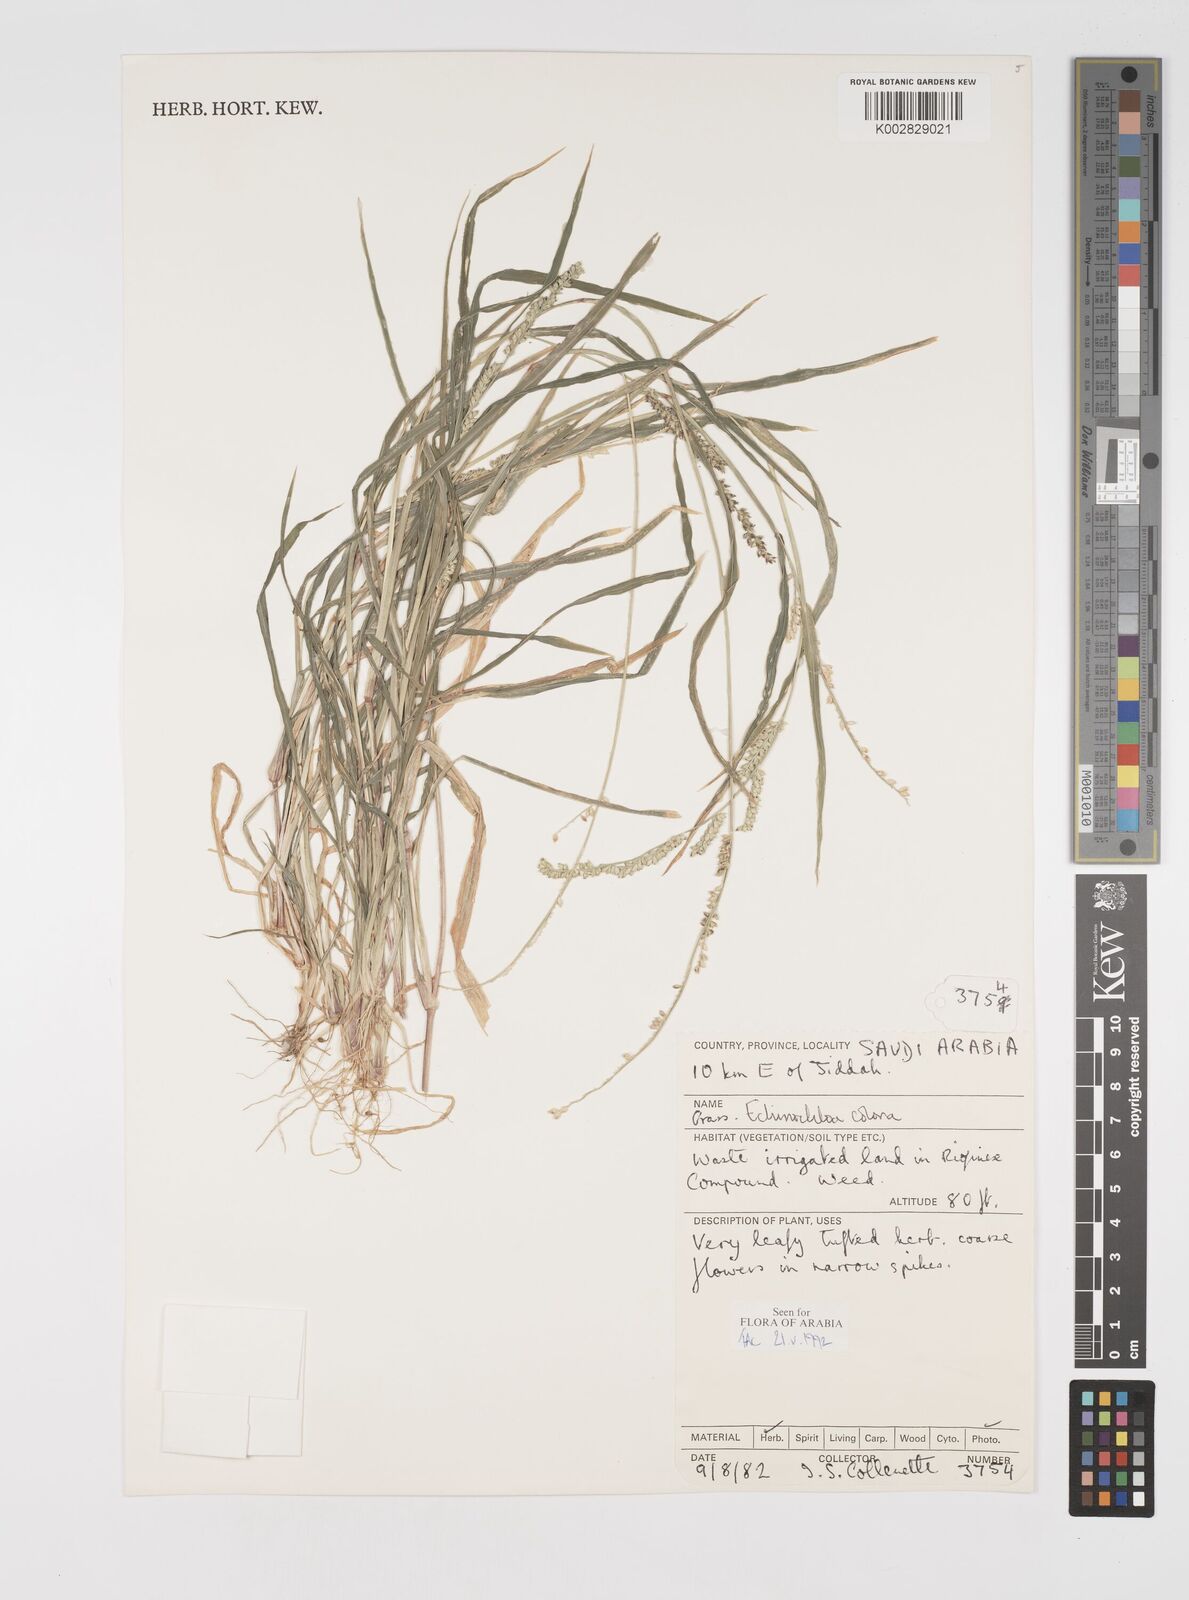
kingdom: Plantae
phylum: Tracheophyta
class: Liliopsida
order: Poales
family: Poaceae
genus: Echinochloa
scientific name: Echinochloa colonum
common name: Jungle rice
